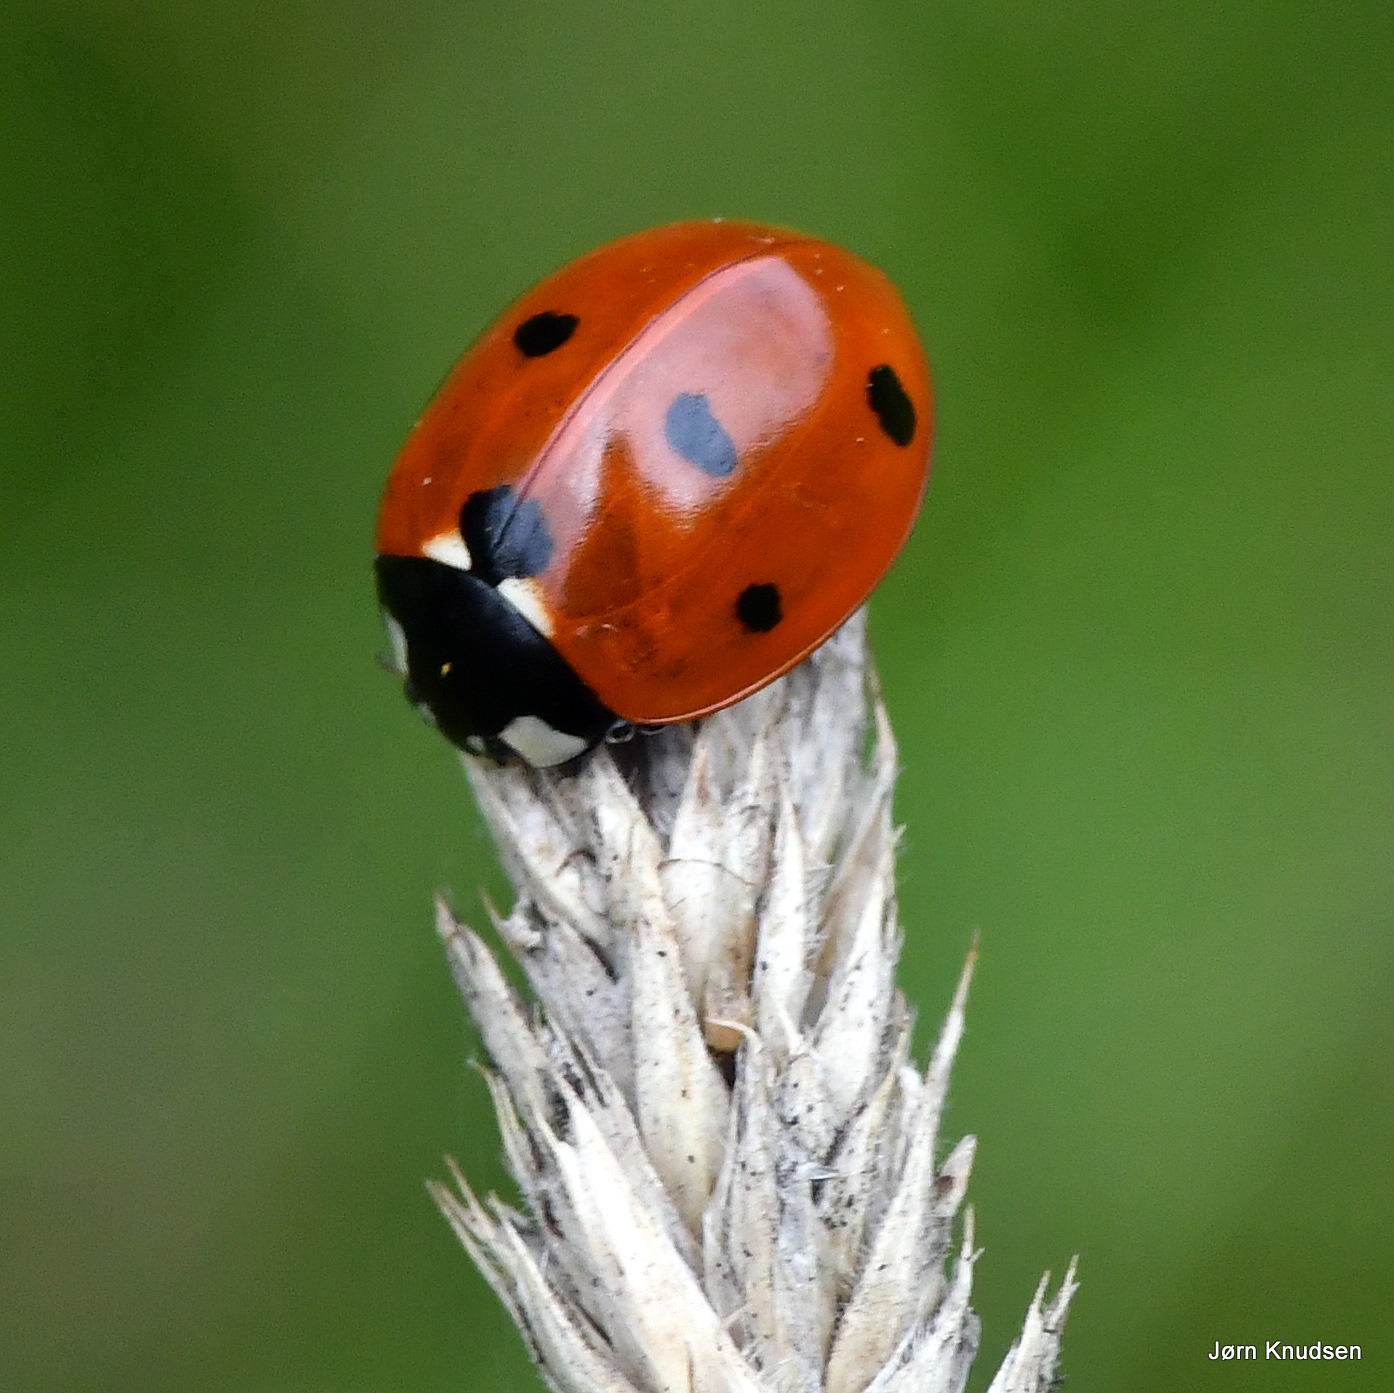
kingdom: Animalia
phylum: Arthropoda
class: Insecta
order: Coleoptera
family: Coccinellidae
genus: Coccinella
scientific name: Coccinella septempunctata
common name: Syvplettet mariehøne
